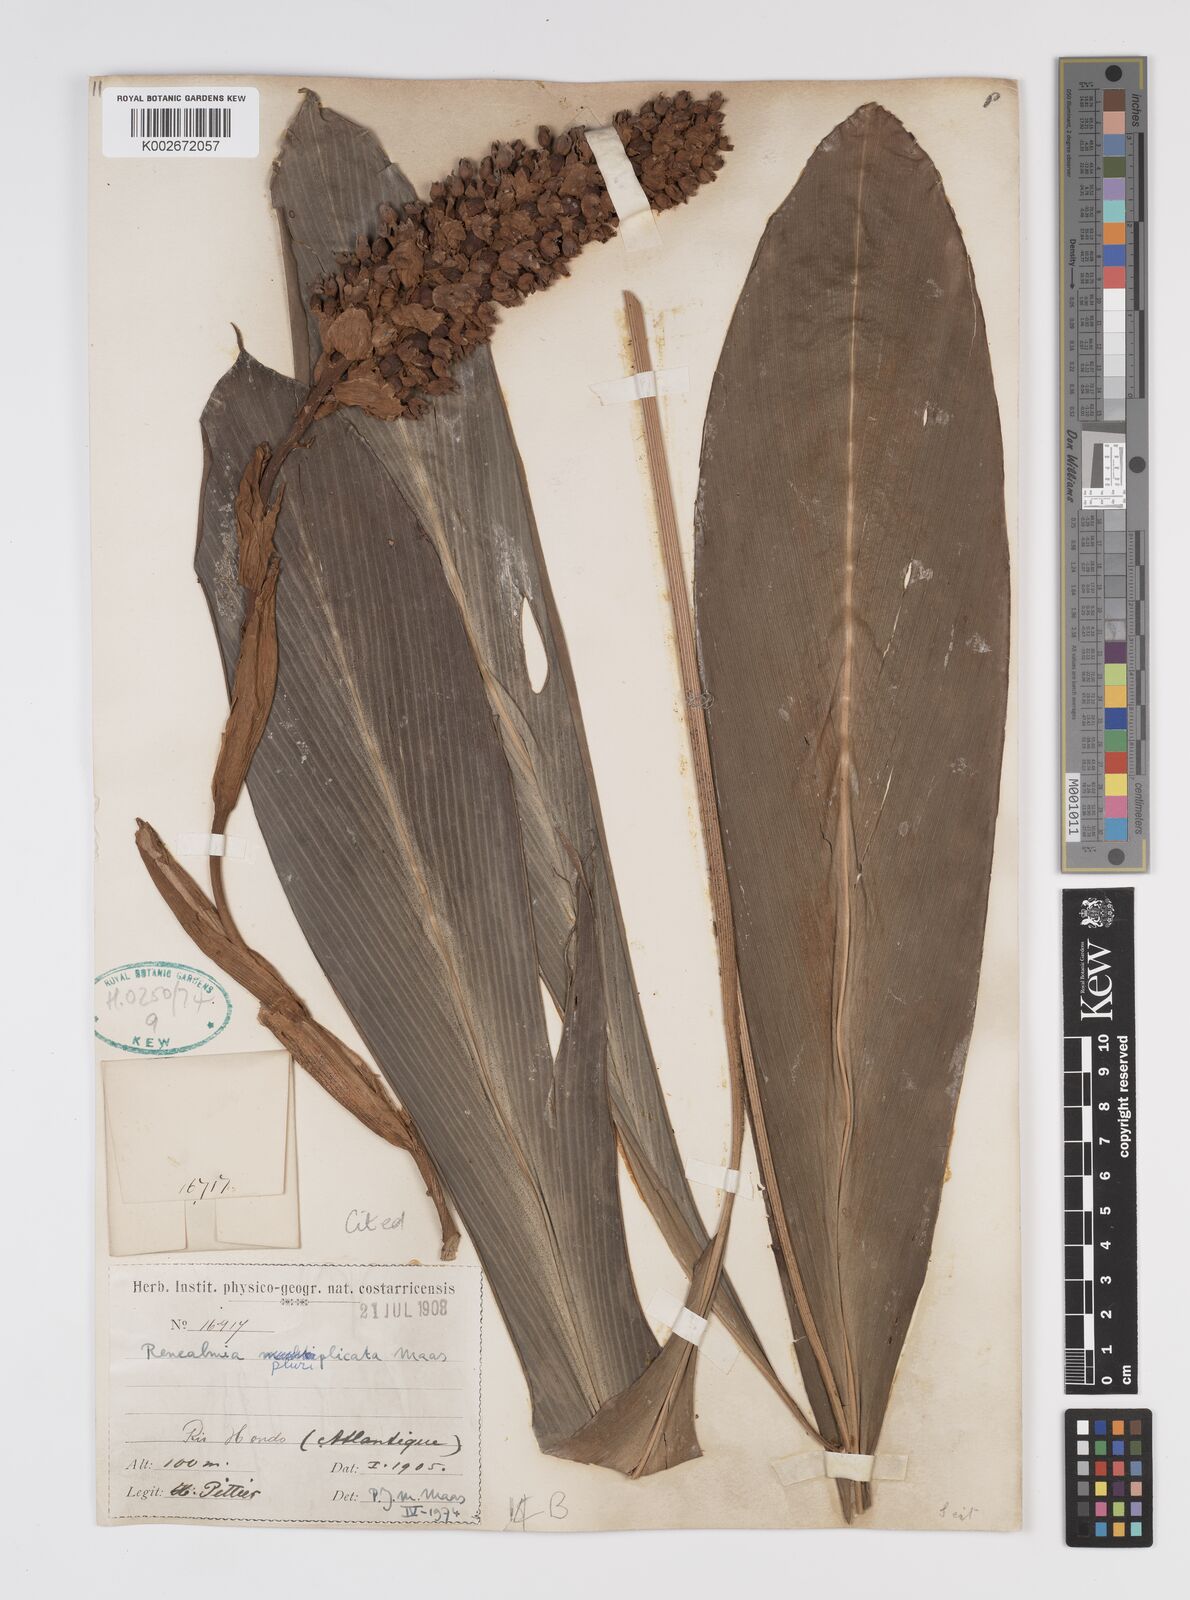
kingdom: Plantae
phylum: Tracheophyta
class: Liliopsida
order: Zingiberales
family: Zingiberaceae
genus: Renealmia
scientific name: Renealmia pluriplicata
